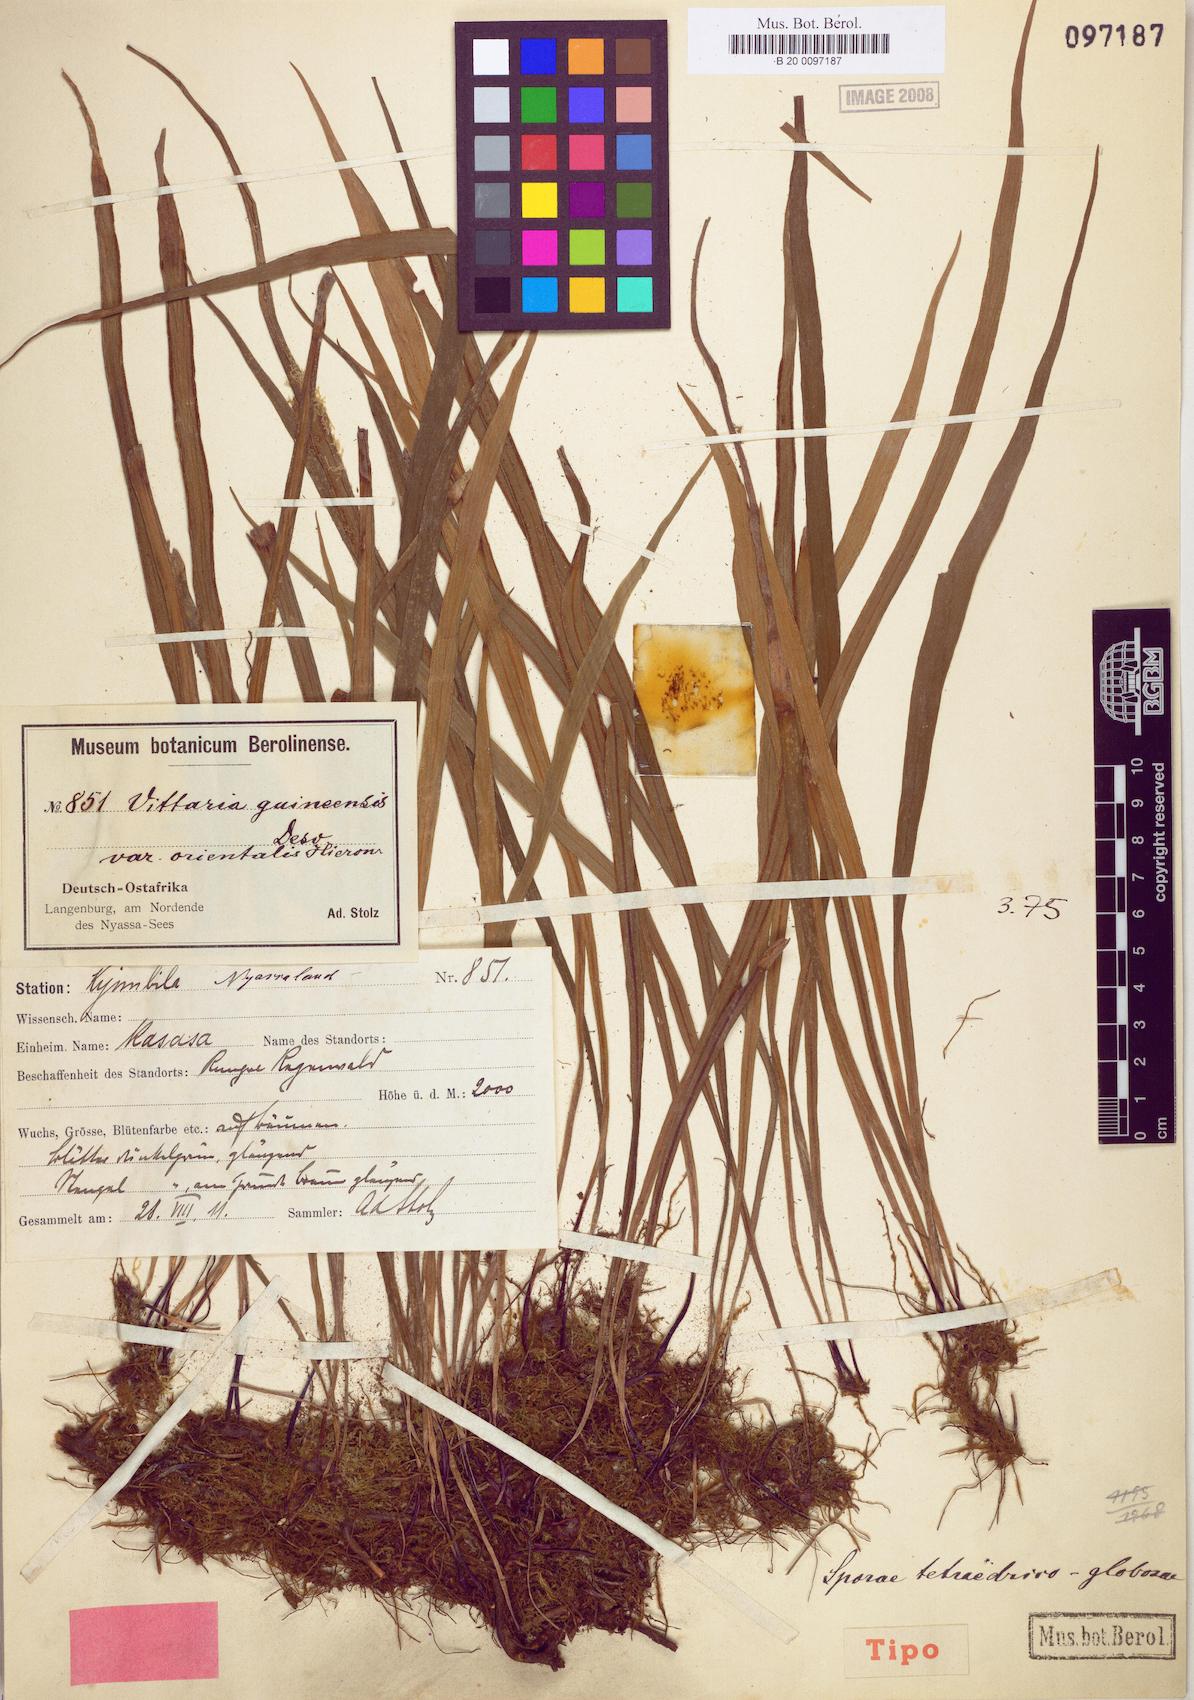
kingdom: Plantae
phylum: Tracheophyta
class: Polypodiopsida
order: Polypodiales
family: Pteridaceae
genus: Haplopteris
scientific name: Haplopteris guineensis
